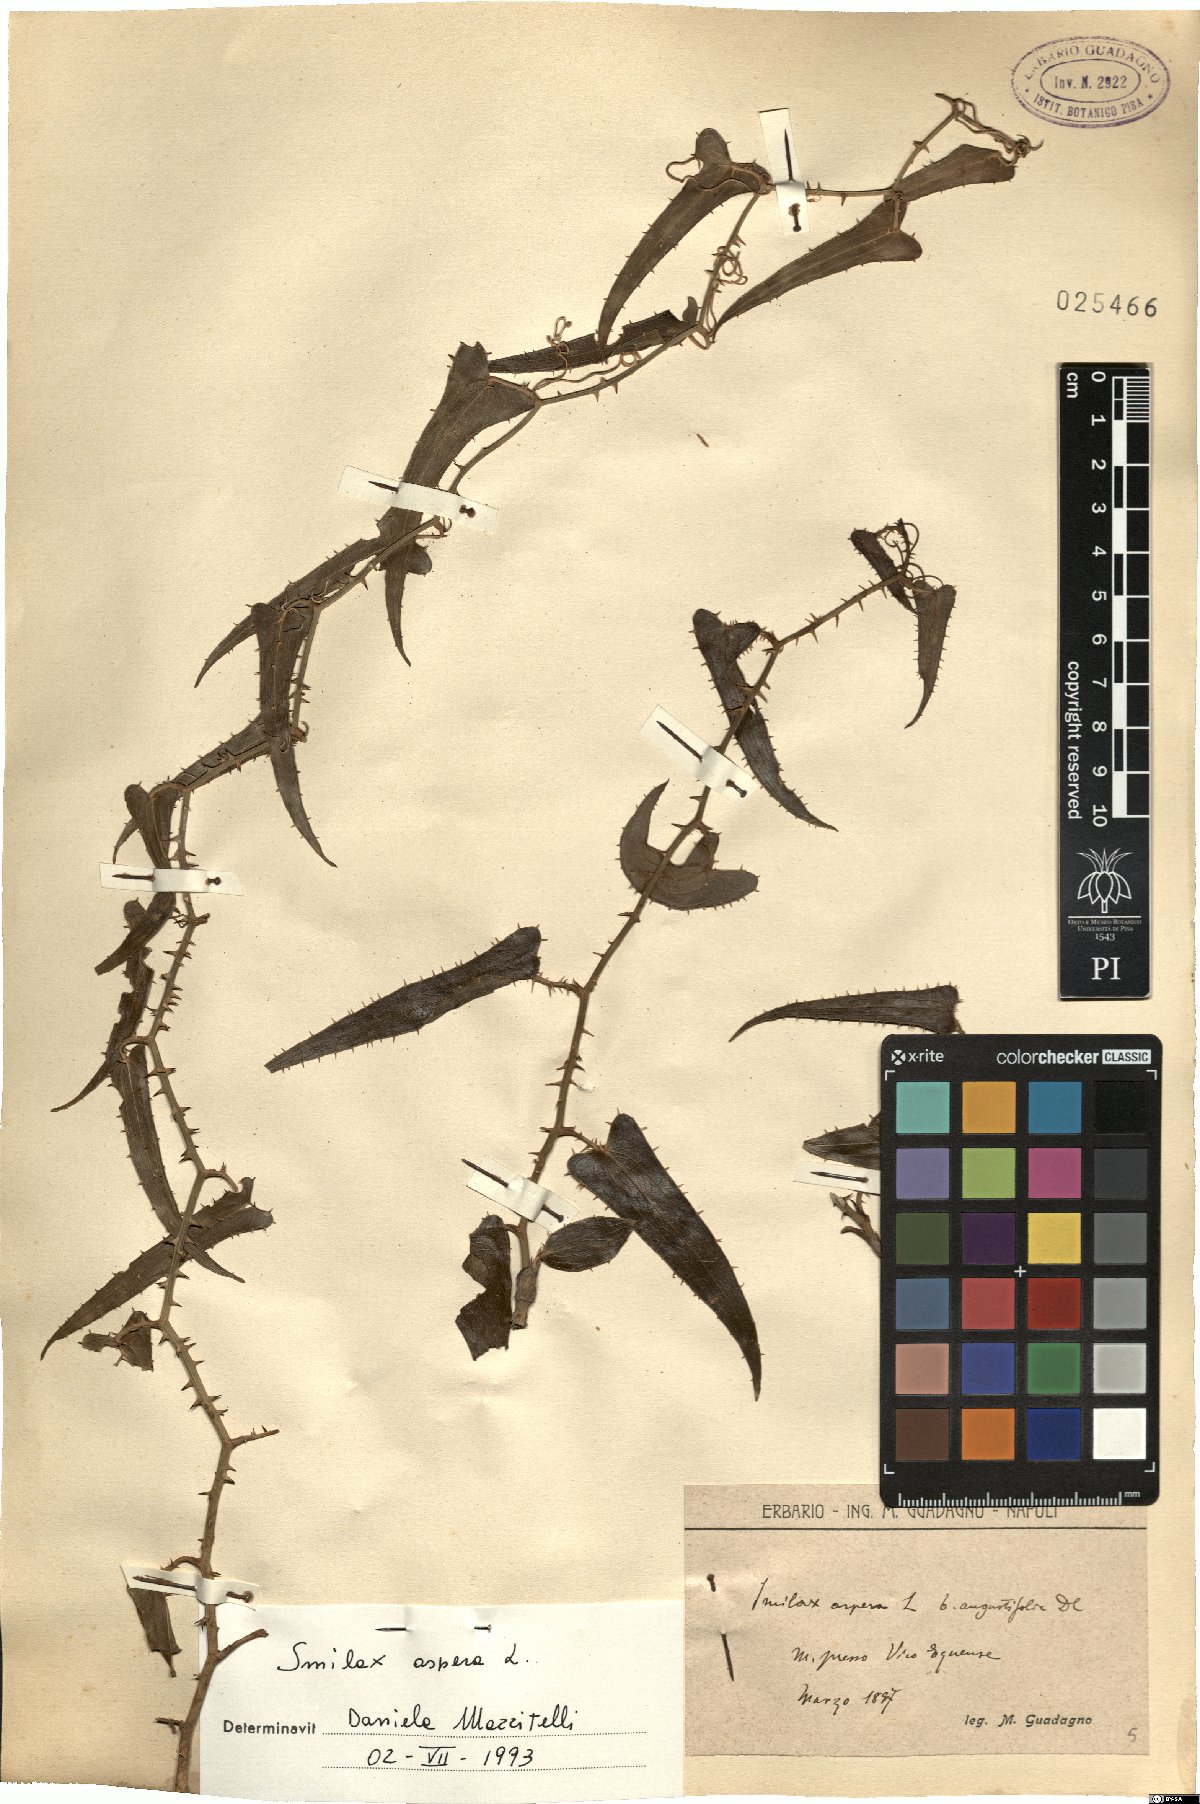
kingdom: Plantae
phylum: Tracheophyta
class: Liliopsida
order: Liliales
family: Smilacaceae
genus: Smilax
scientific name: Smilax aspera
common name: Common smilax
